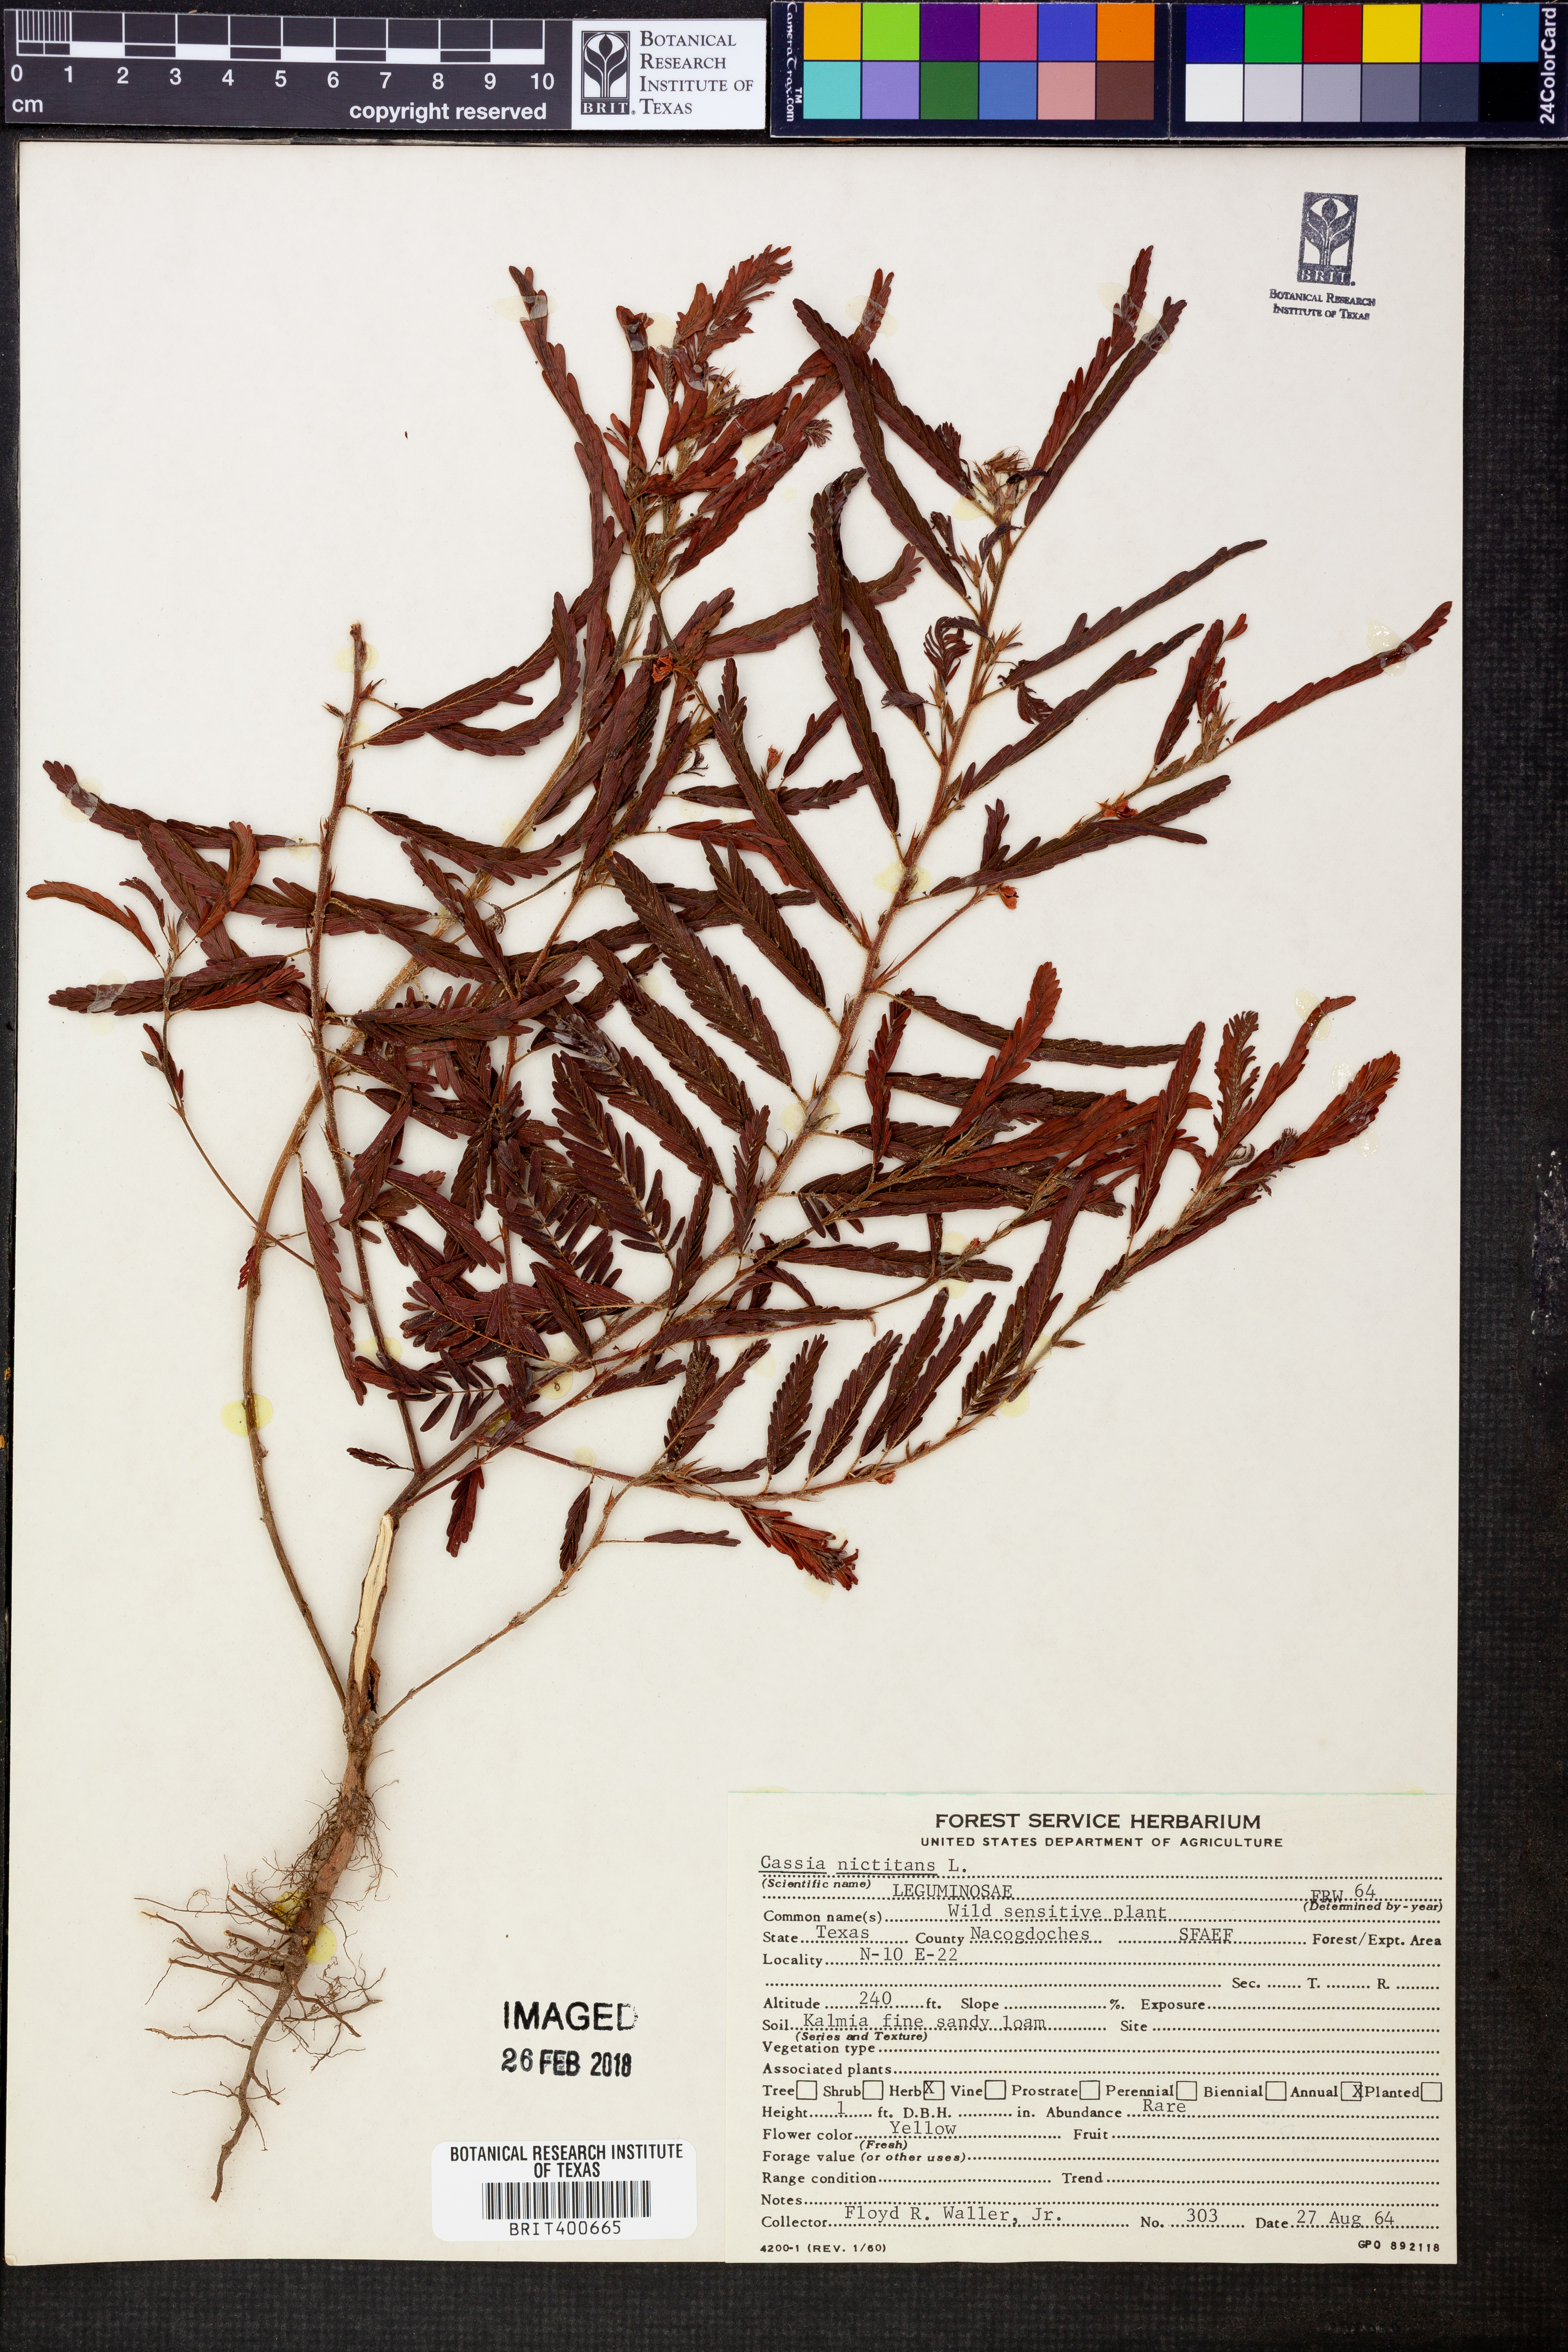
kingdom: Plantae
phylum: Tracheophyta
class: Magnoliopsida
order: Fabales
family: Fabaceae
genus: Chamaecrista
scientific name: Chamaecrista nictitans
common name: Sensitive cassia
